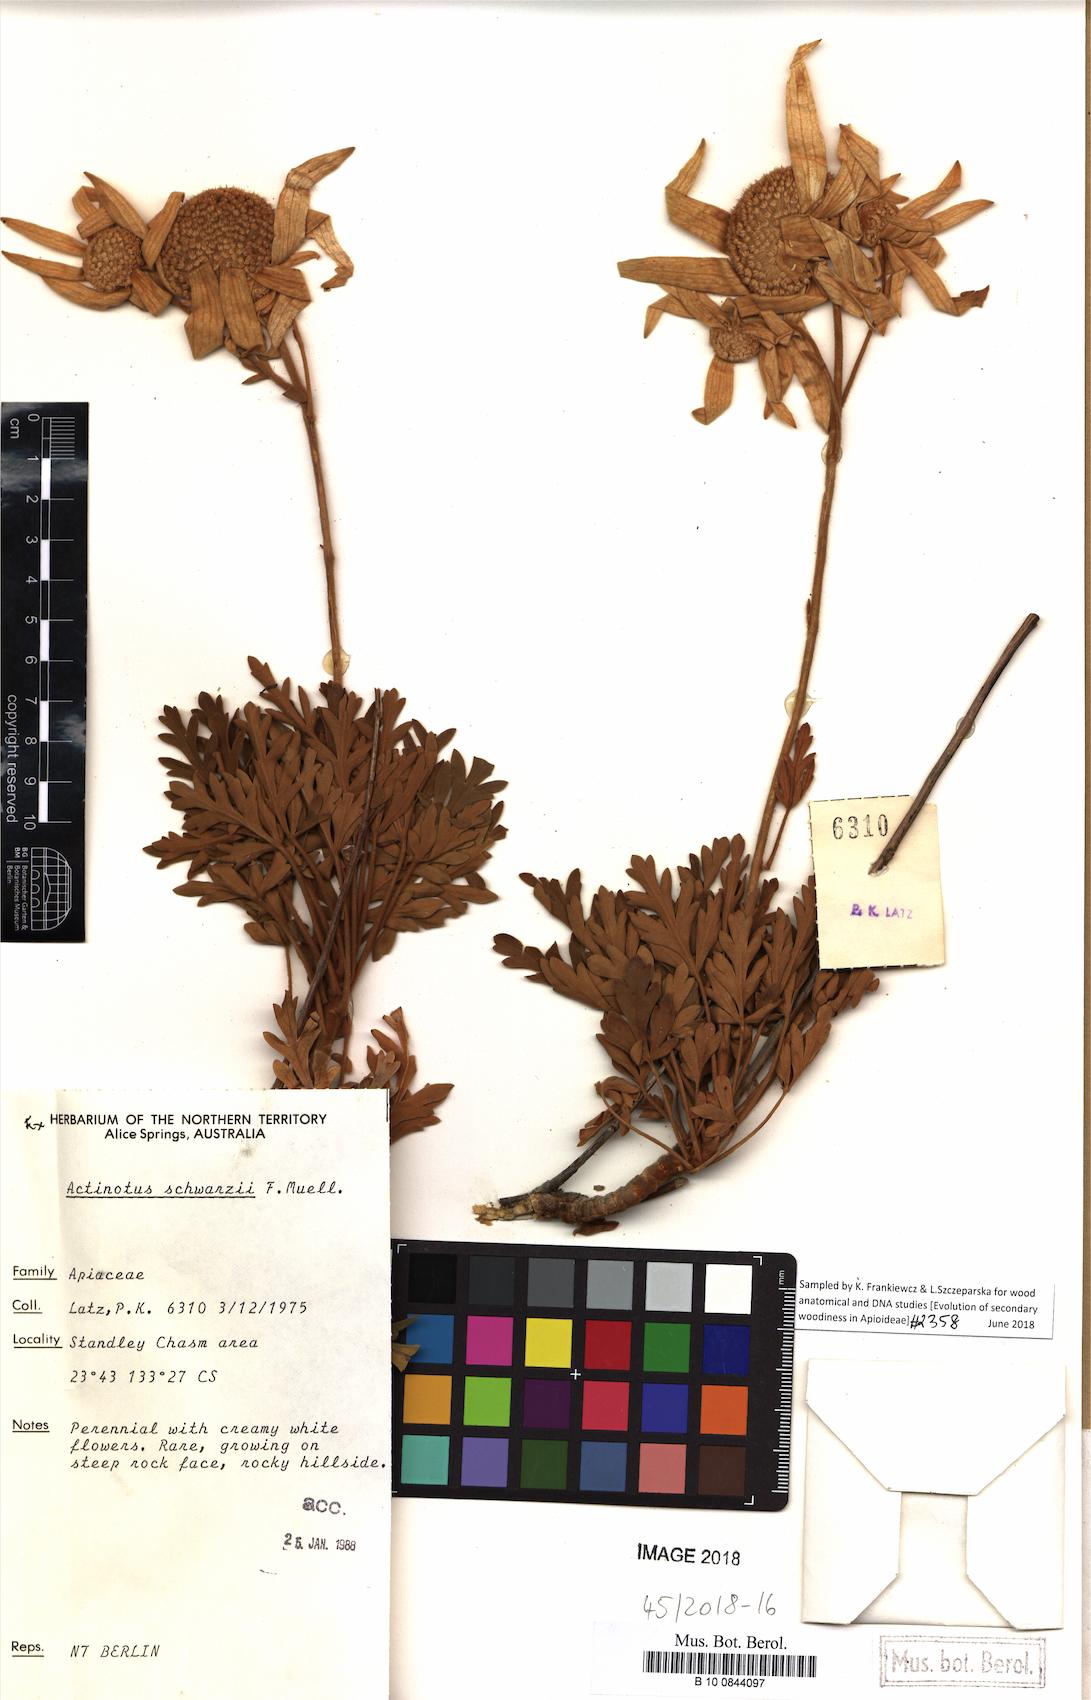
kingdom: Plantae
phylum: Tracheophyta
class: Magnoliopsida
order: Apiales
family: Apiaceae
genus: Actinotus
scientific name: Actinotus schwarzii
